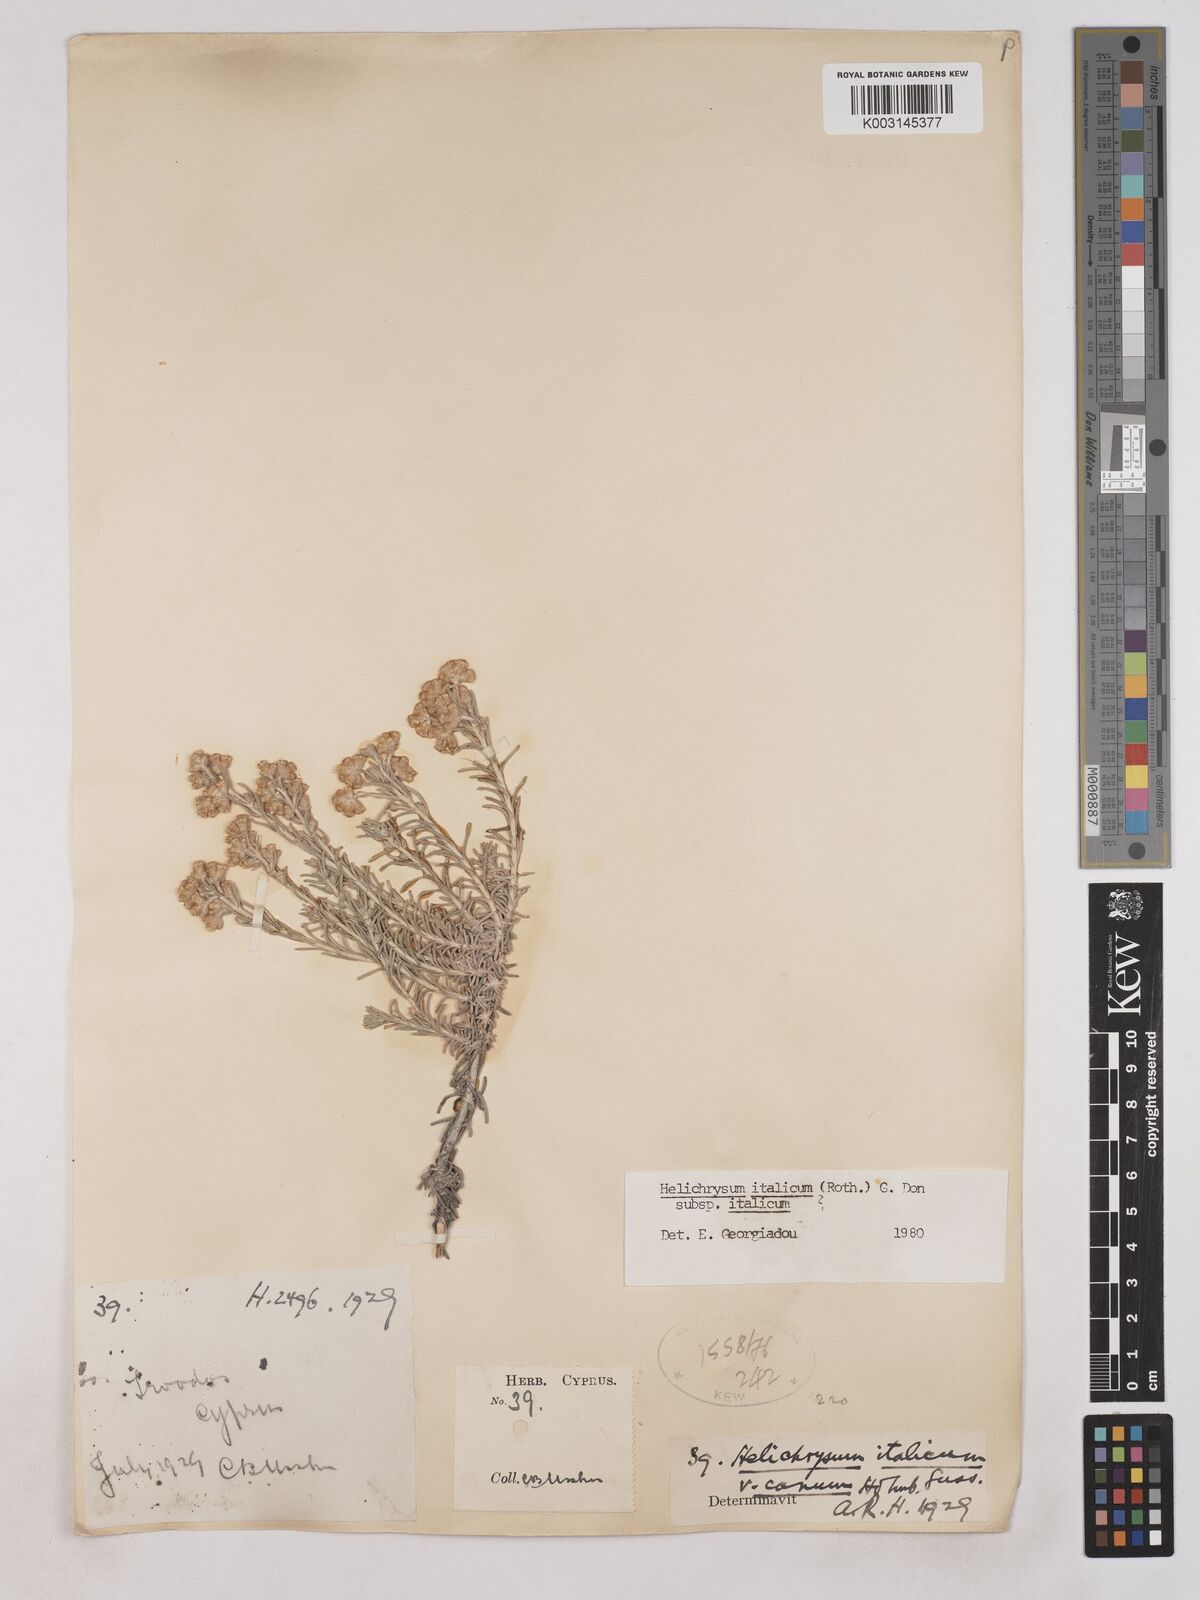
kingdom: Plantae
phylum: Tracheophyta
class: Magnoliopsida
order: Asterales
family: Asteraceae
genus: Helichrysum
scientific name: Helichrysum italicum
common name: Curryplant
